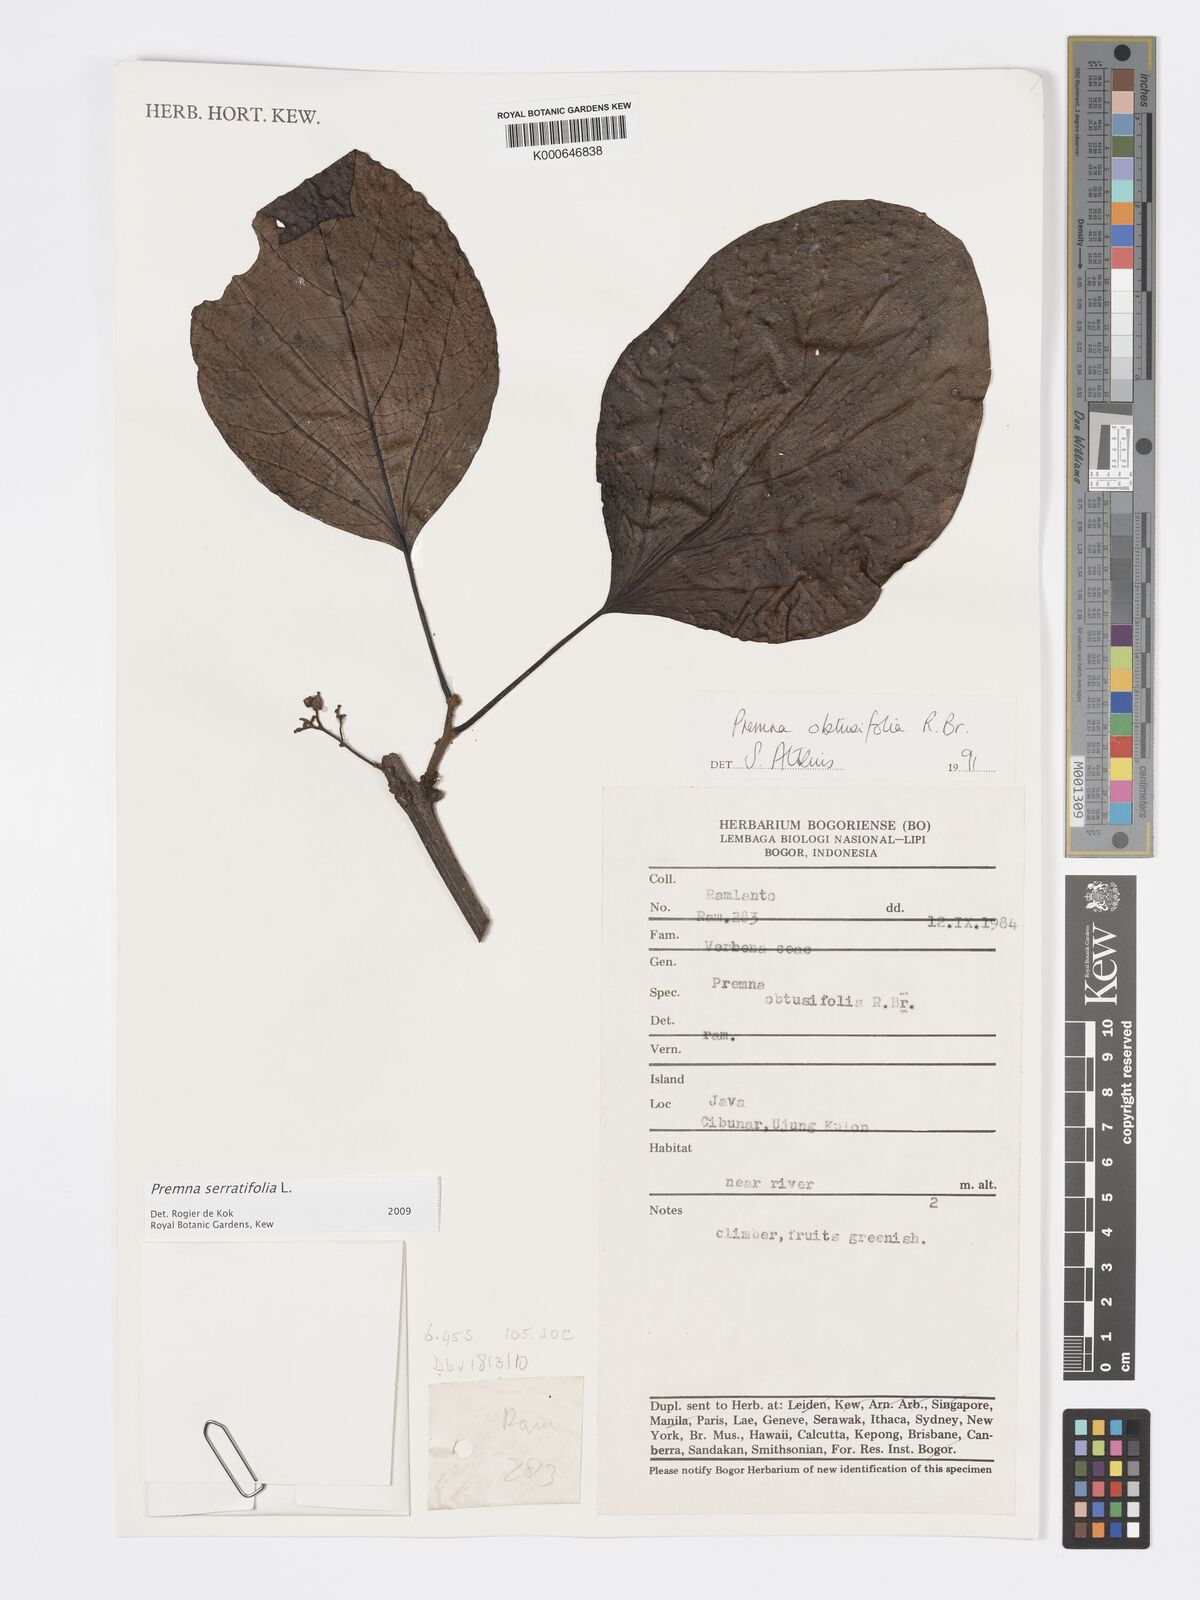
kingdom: Plantae
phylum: Tracheophyta
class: Magnoliopsida
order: Lamiales
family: Lamiaceae
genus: Premna
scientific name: Premna serratifolia
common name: Bastard guelder
